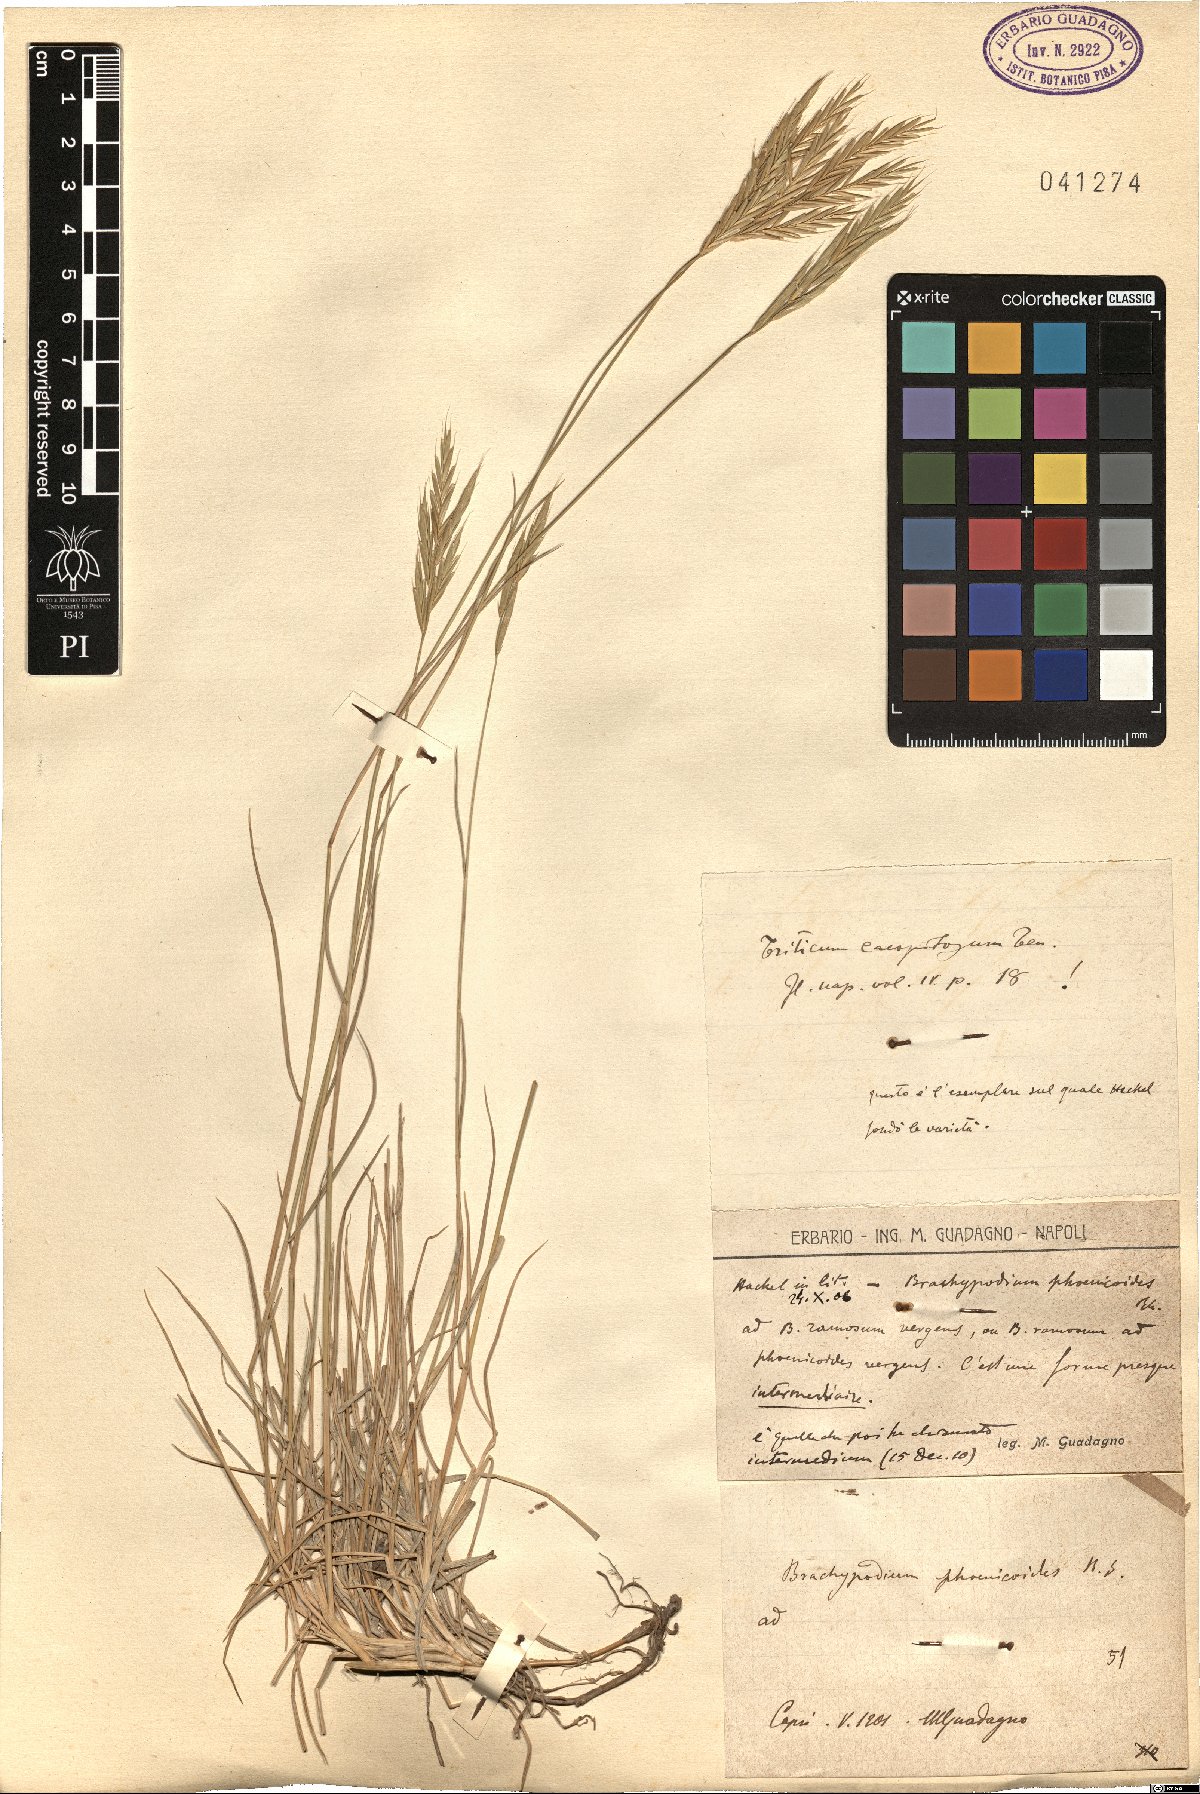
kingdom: Plantae
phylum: Tracheophyta
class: Liliopsida
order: Poales
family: Poaceae
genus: Brachypodium
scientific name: Brachypodium phoenicoides
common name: Thinleaf false brome
